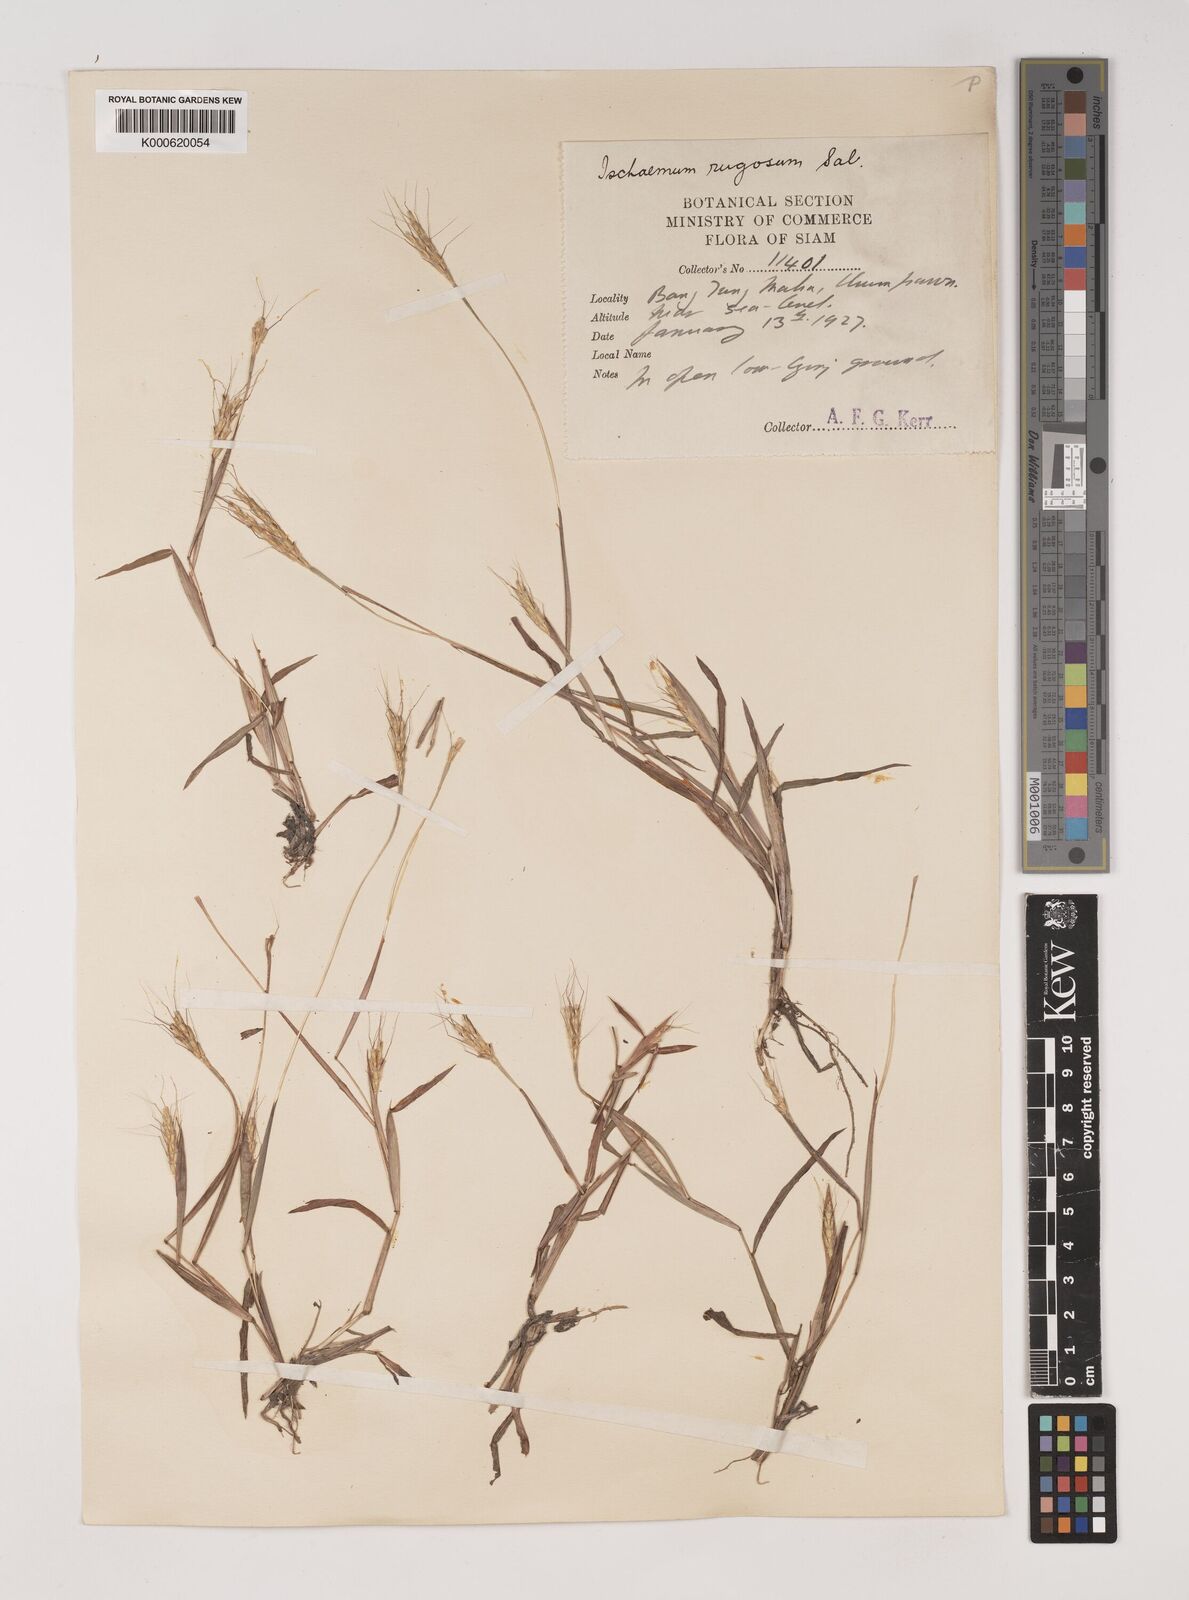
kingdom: Plantae
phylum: Tracheophyta
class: Liliopsida
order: Poales
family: Poaceae
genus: Ischaemum
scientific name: Ischaemum rugosum
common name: Saramatta grass
